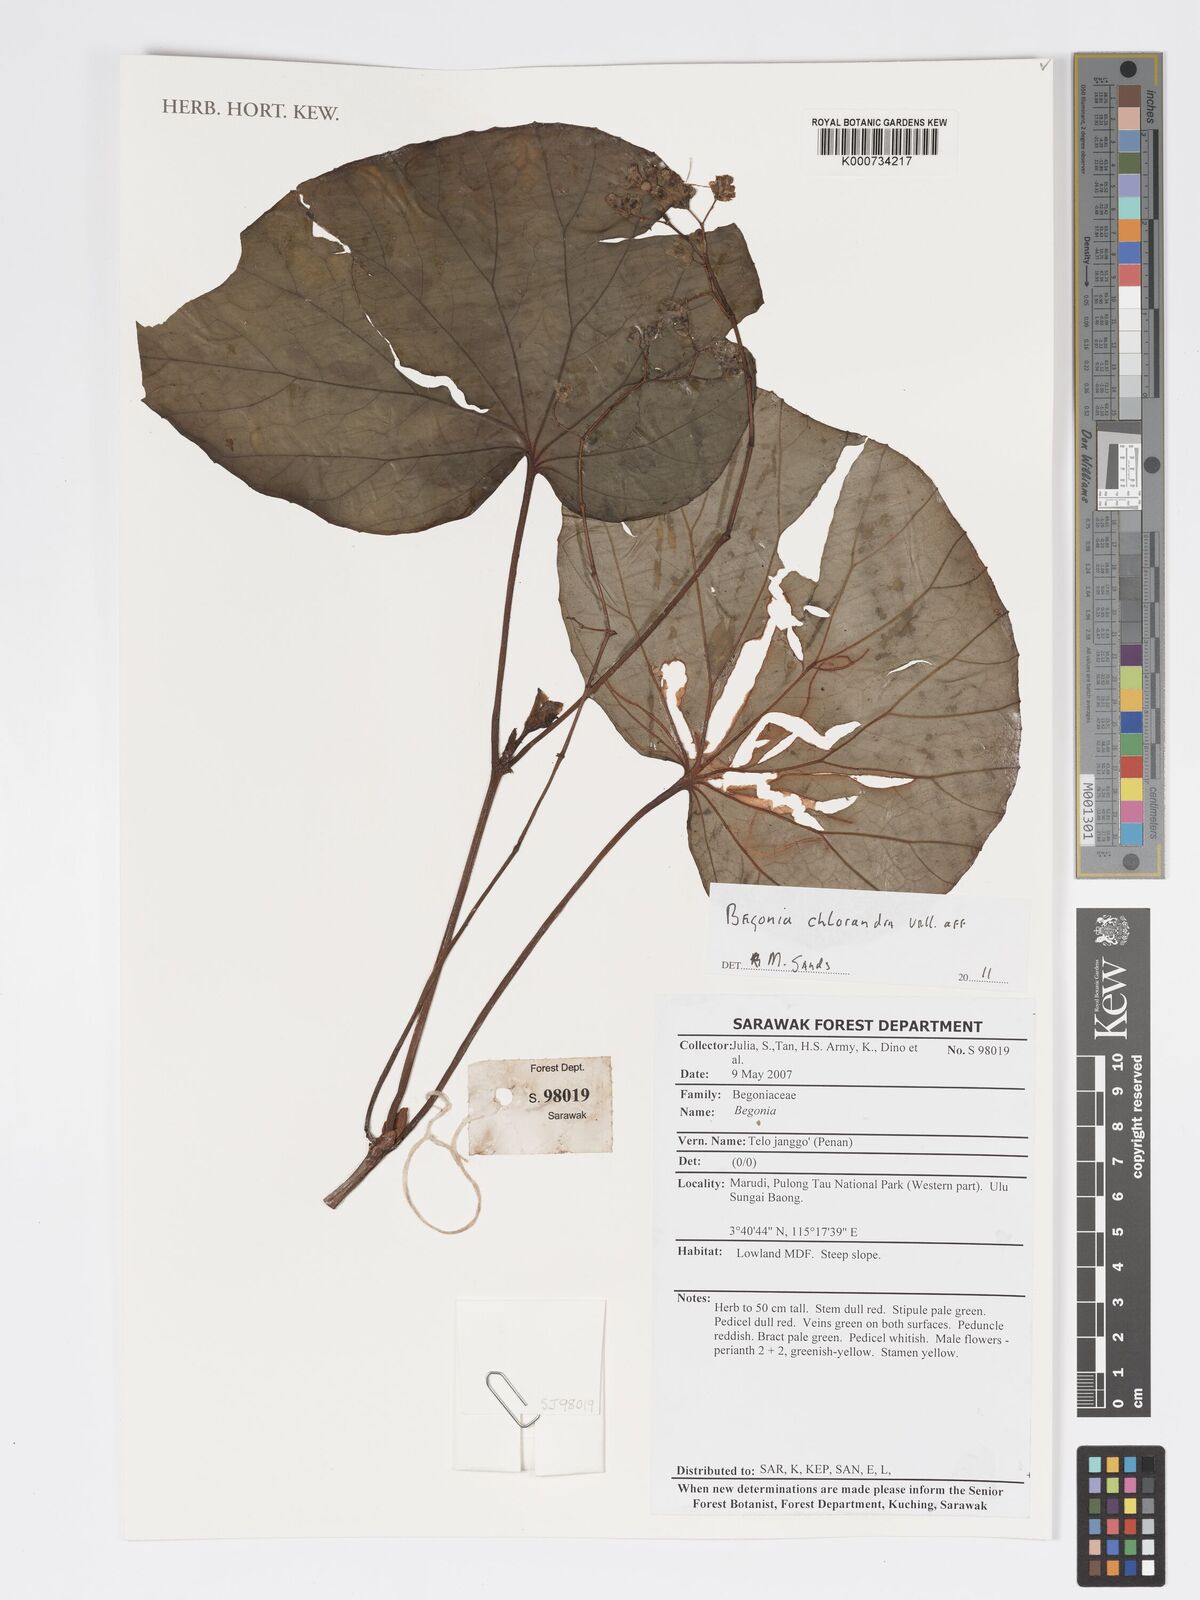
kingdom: Plantae
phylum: Tracheophyta
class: Magnoliopsida
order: Cucurbitales
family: Begoniaceae
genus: Begonia
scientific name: Begonia
